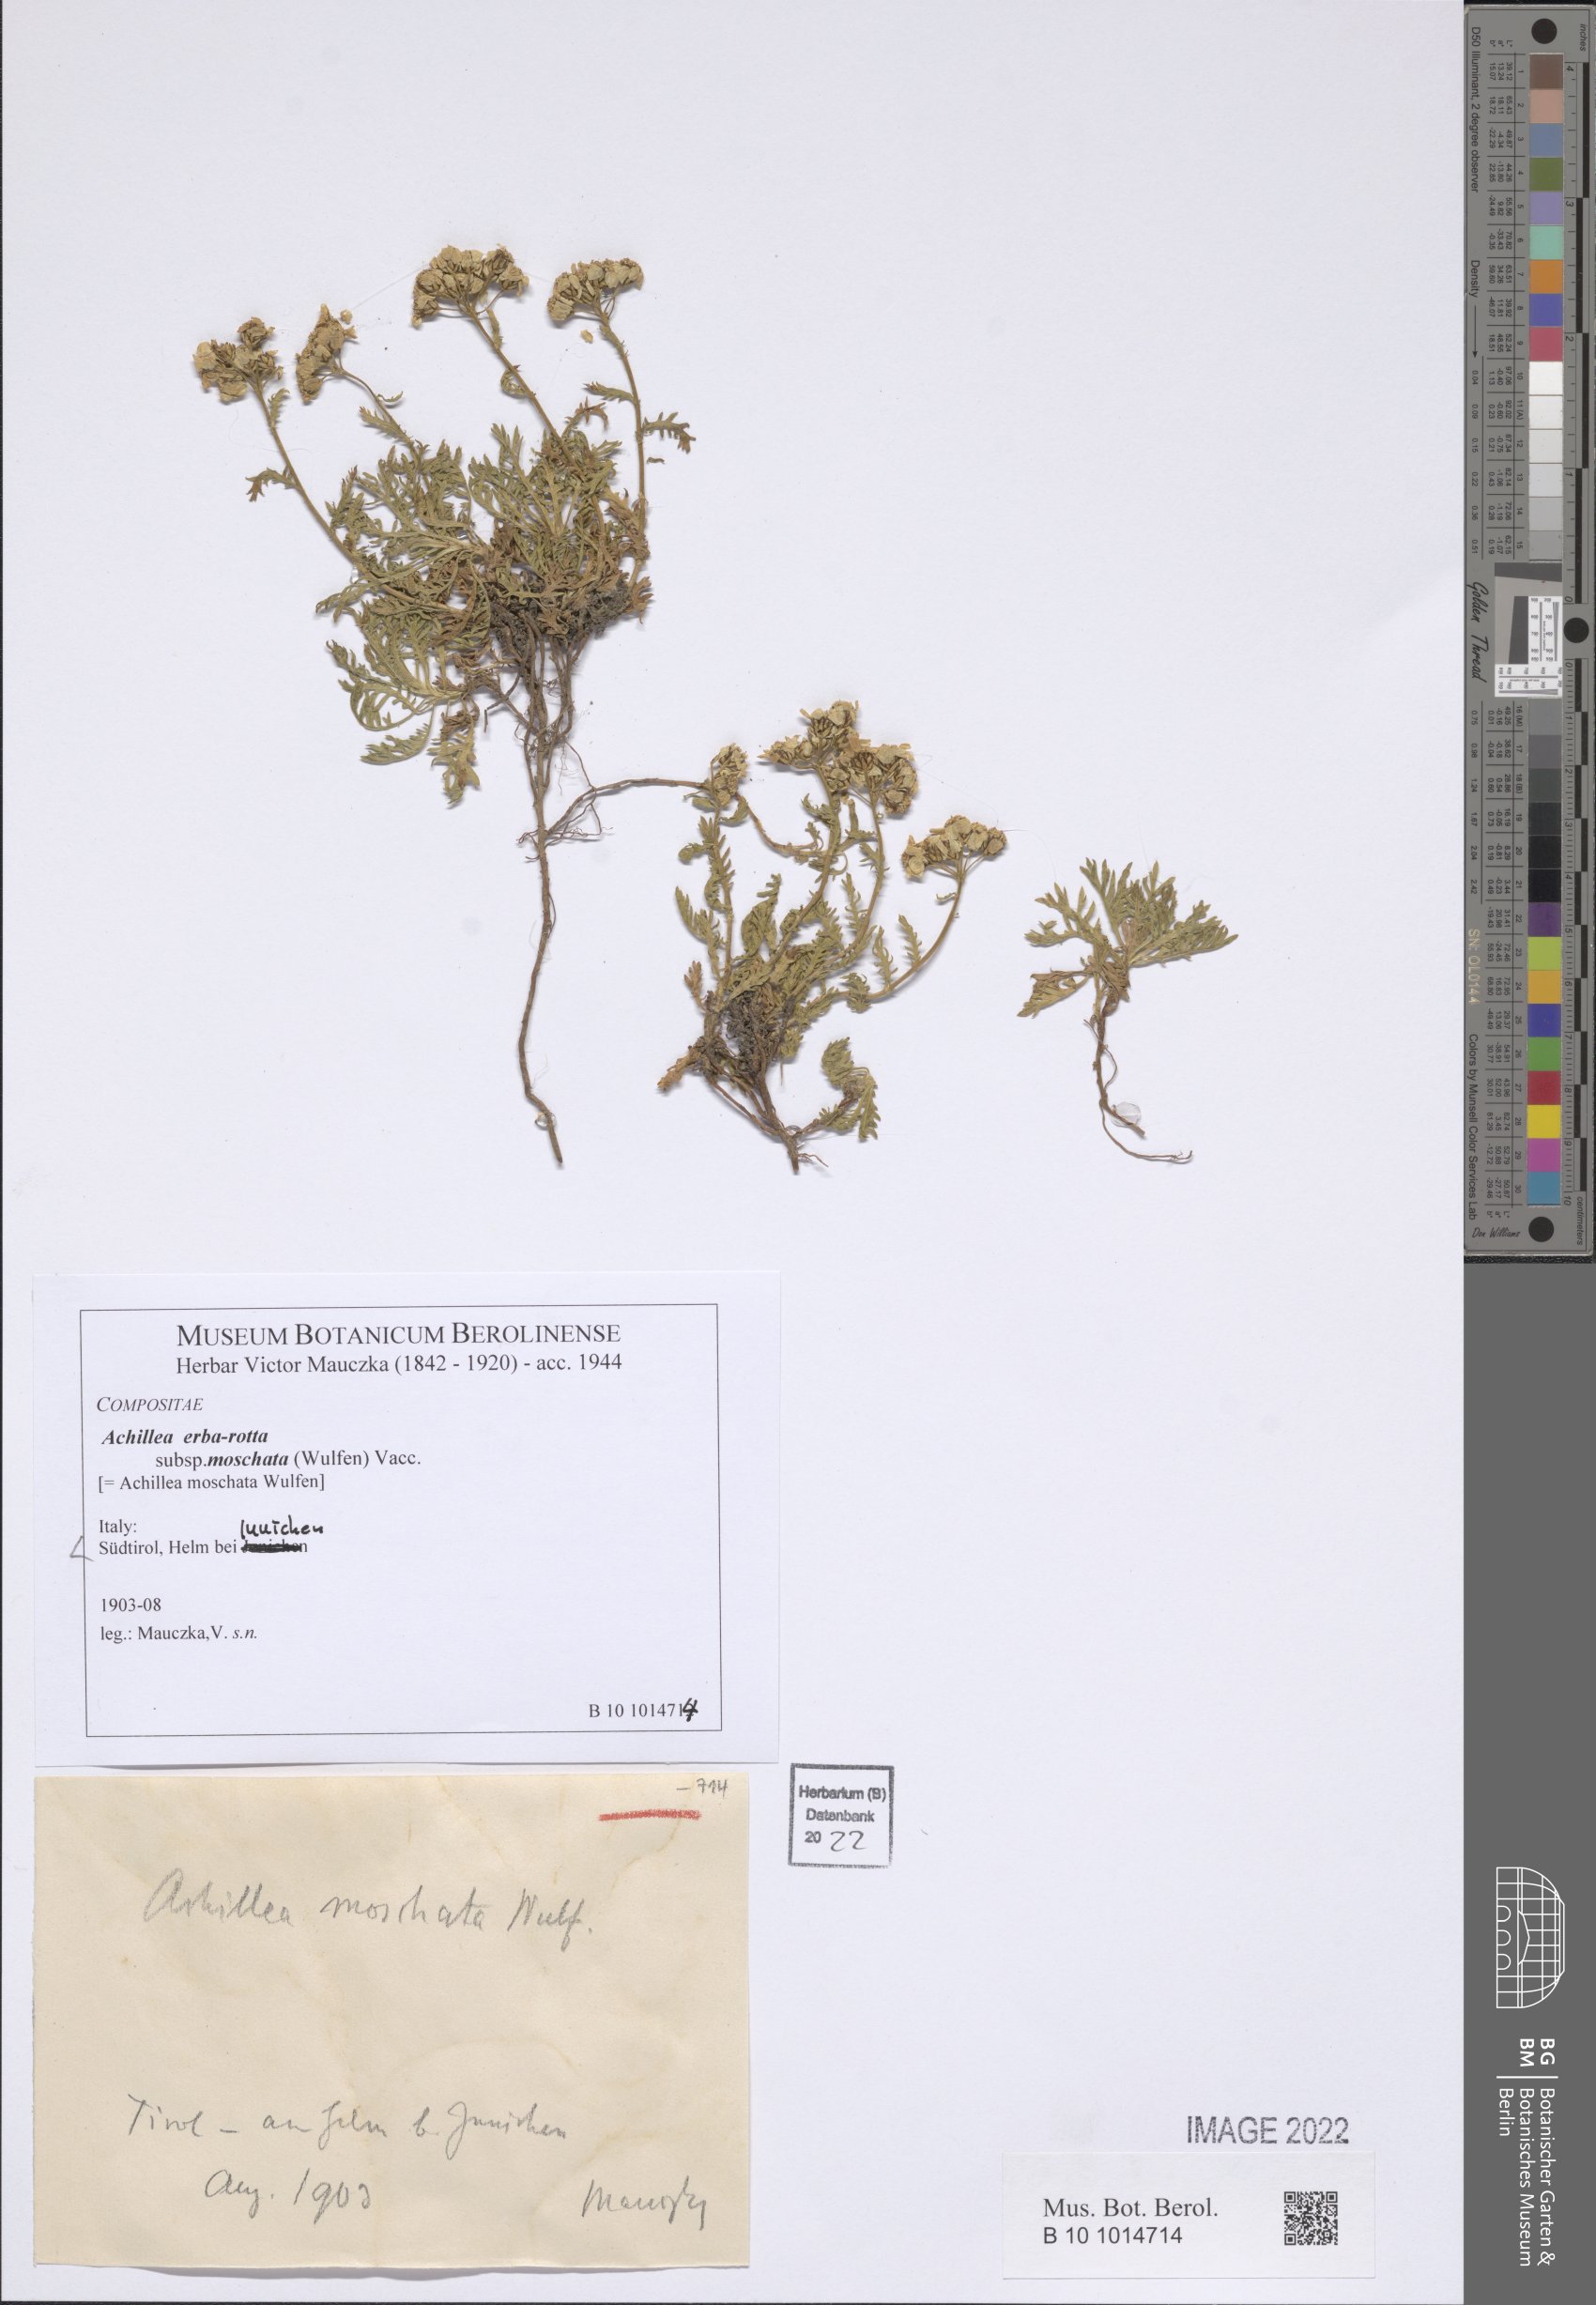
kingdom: Plantae
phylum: Tracheophyta
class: Magnoliopsida
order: Asterales
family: Asteraceae
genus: Achillea
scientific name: Achillea erba-rotta
